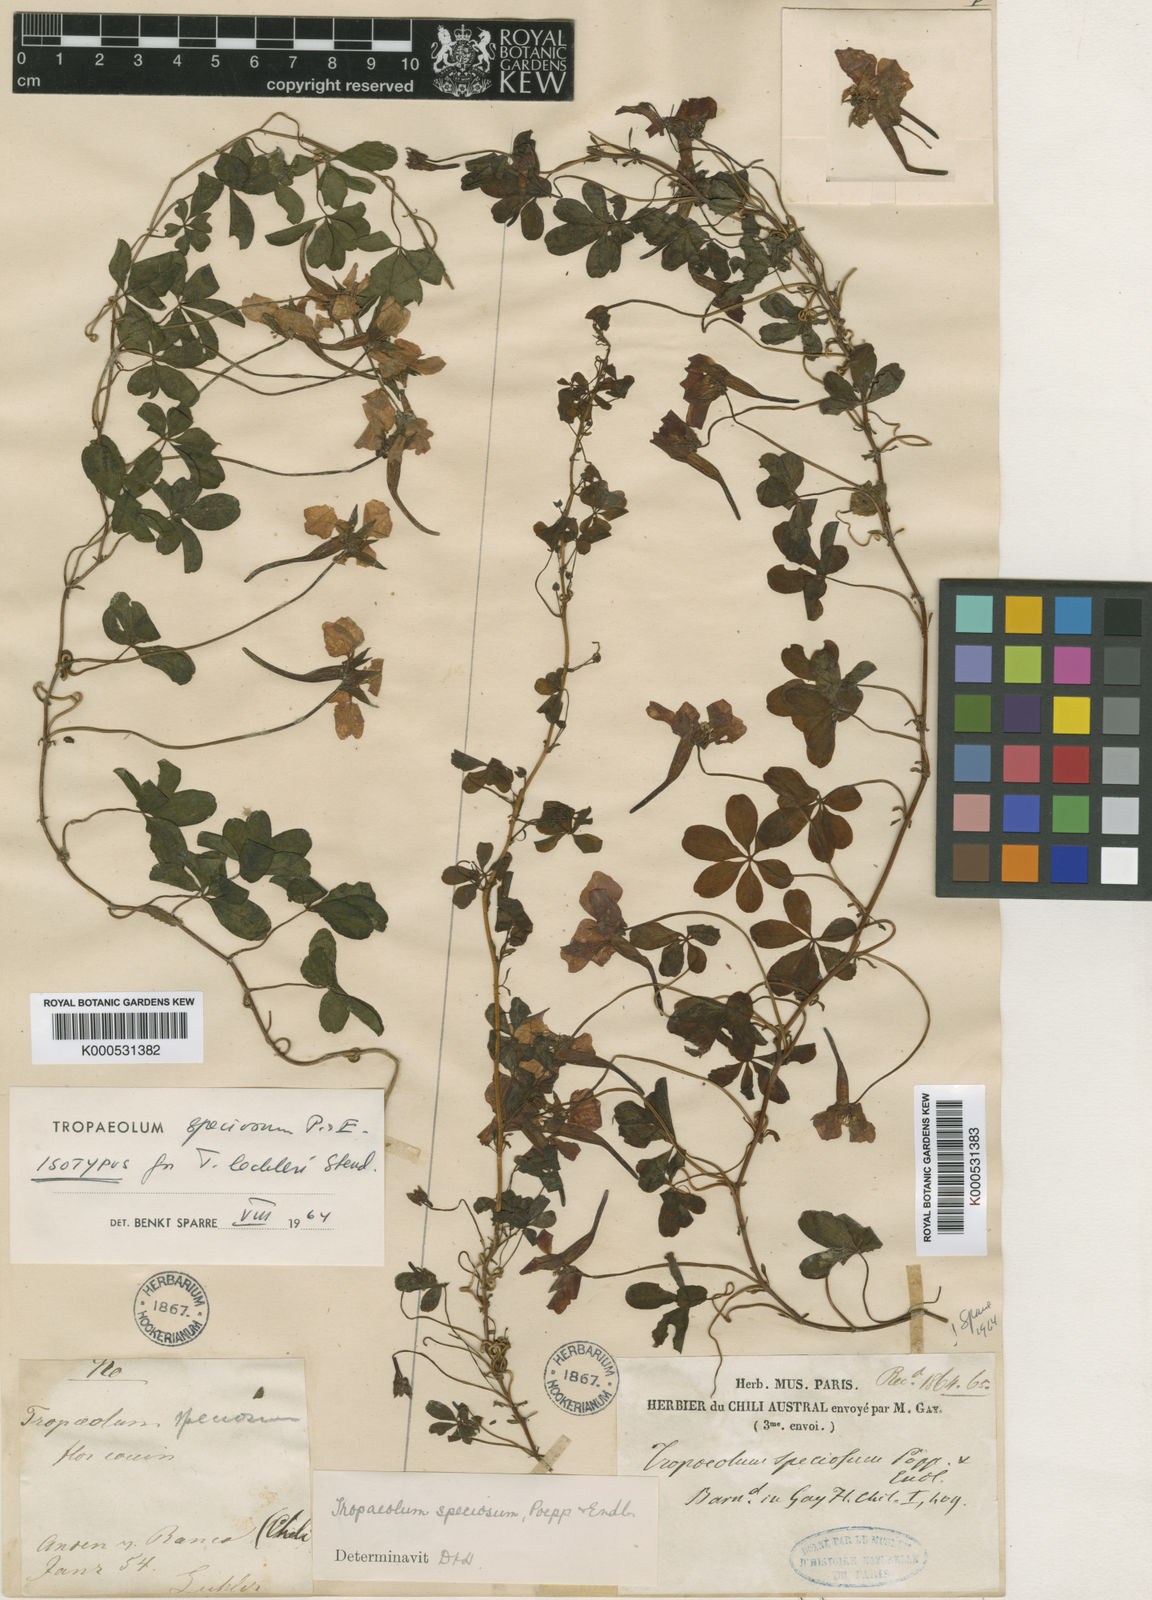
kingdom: Plantae
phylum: Tracheophyta
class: Magnoliopsida
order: Brassicales
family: Tropaeolaceae
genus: Tropaeolum
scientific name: Tropaeolum speciosum
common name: Flame nasturtium
